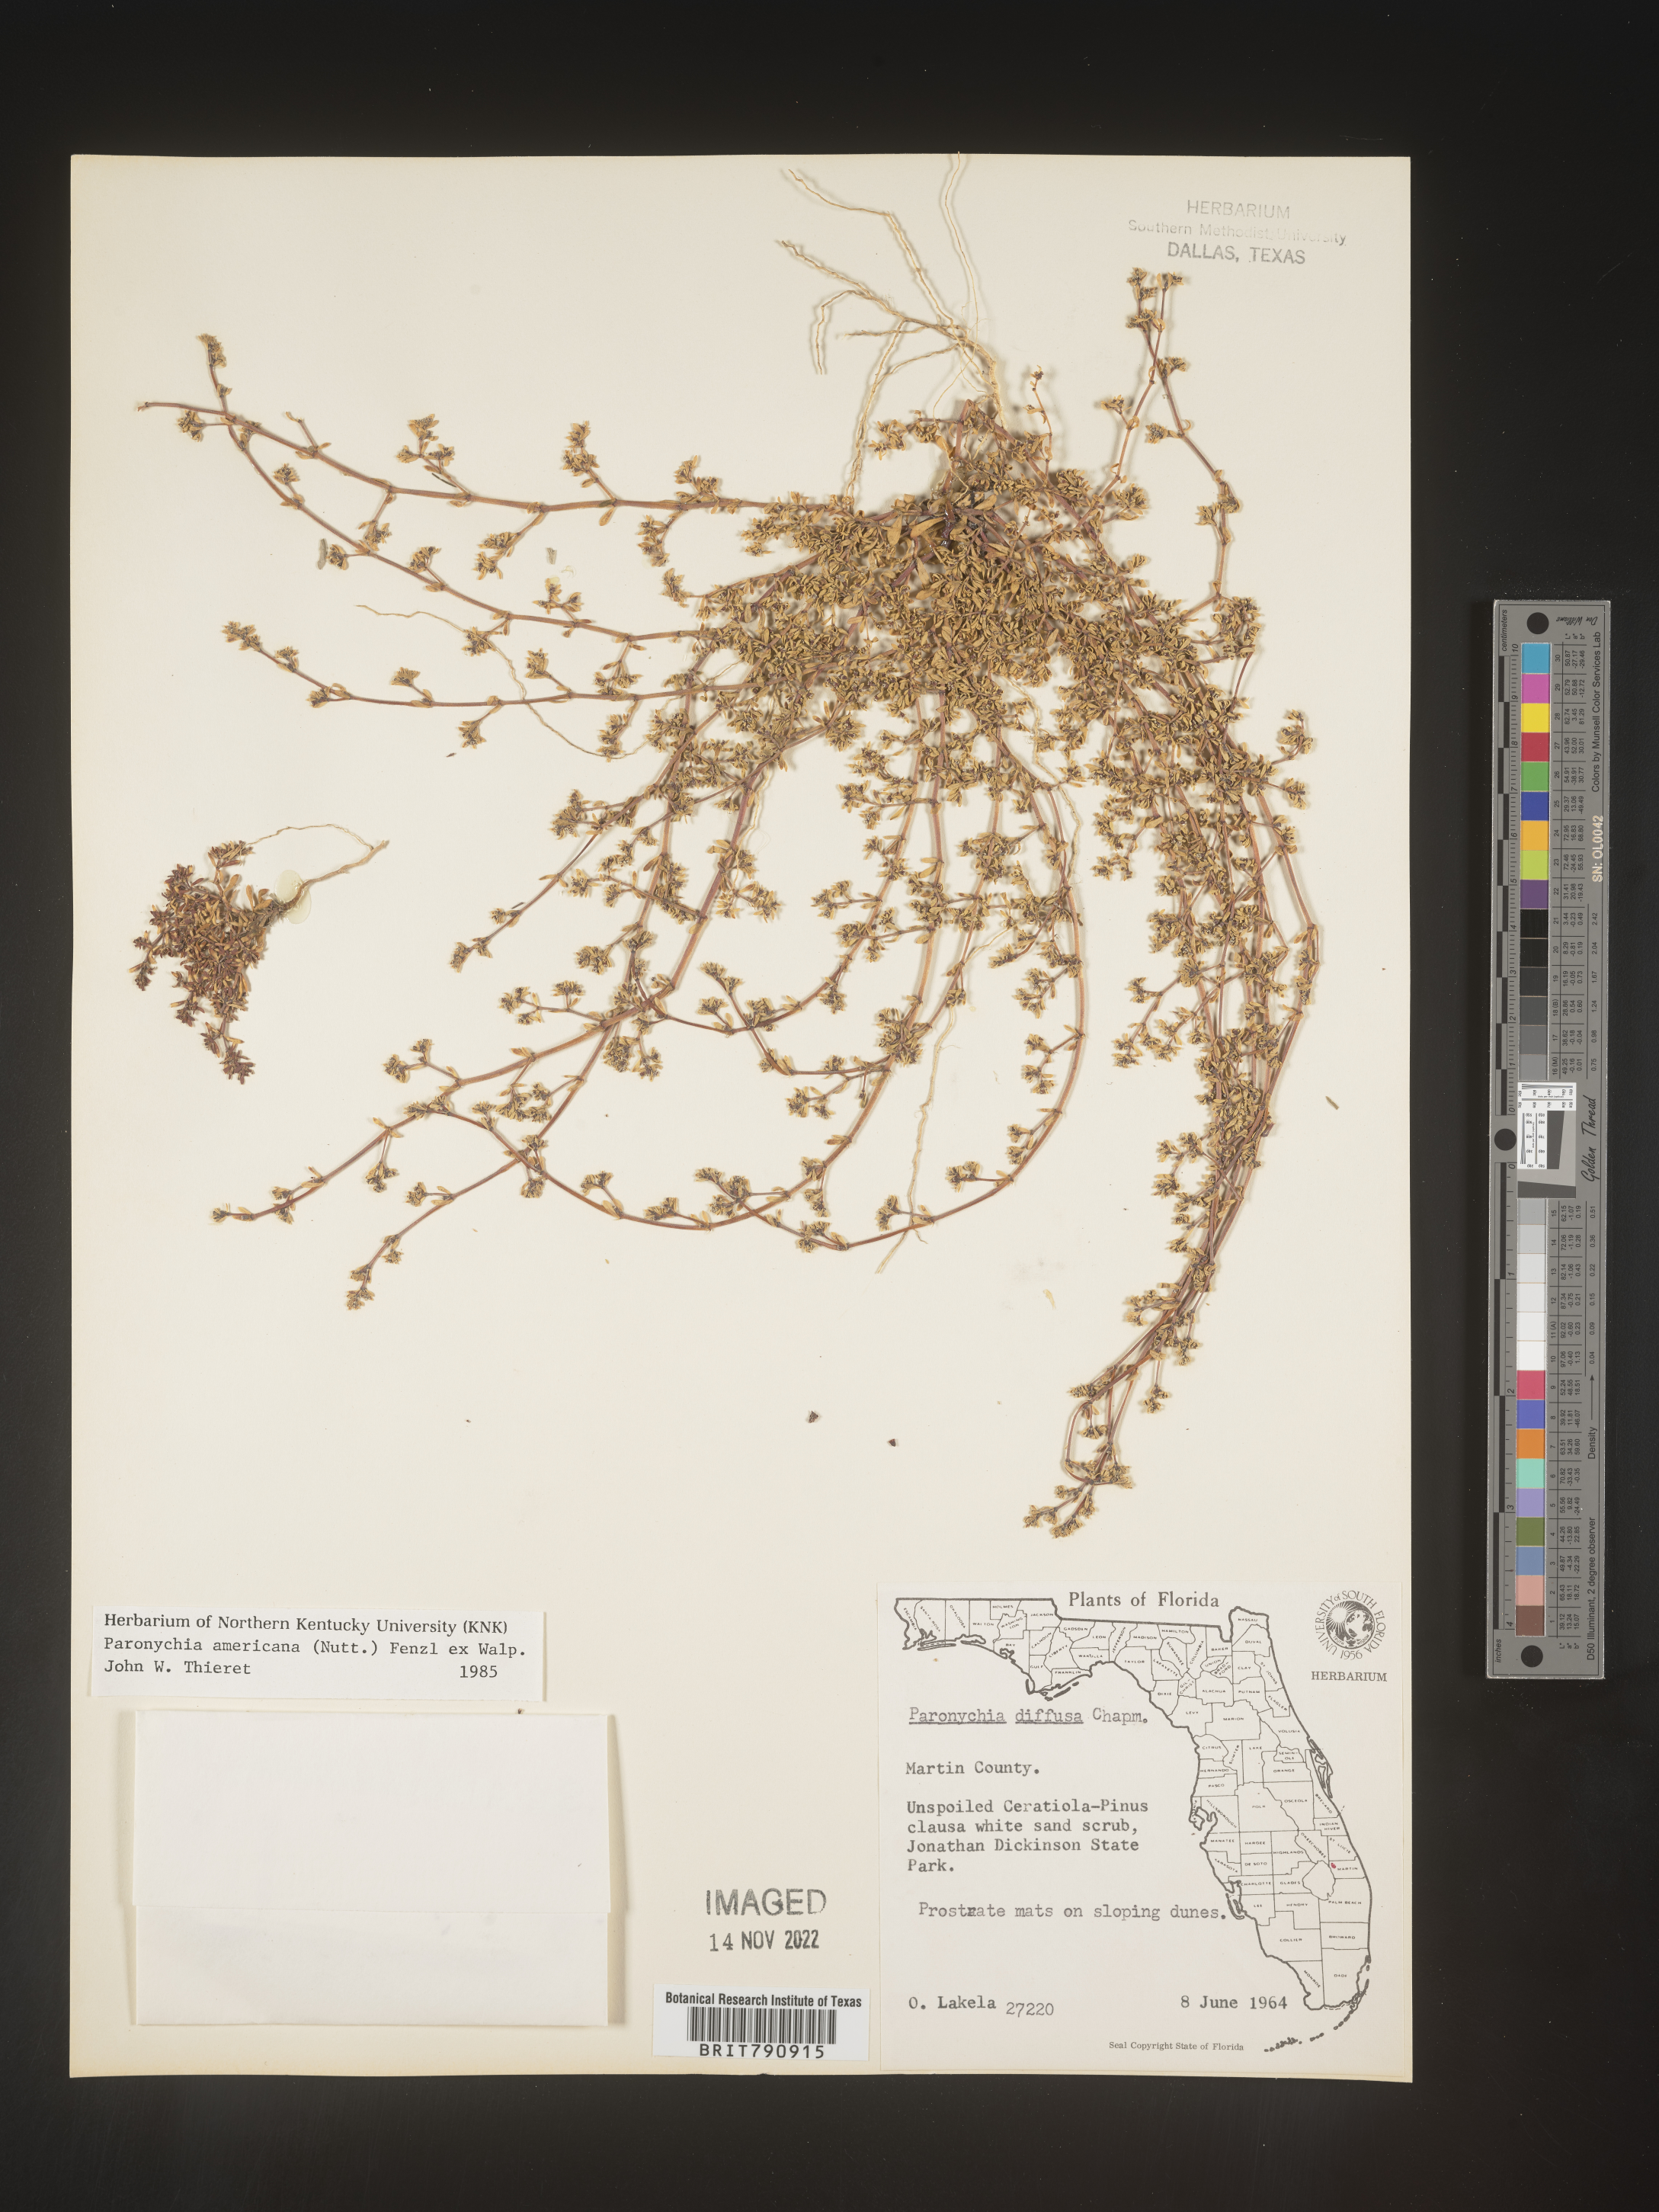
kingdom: Plantae
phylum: Tracheophyta
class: Magnoliopsida
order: Caryophyllales
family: Caryophyllaceae
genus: Paronychia
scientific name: Paronychia americana
